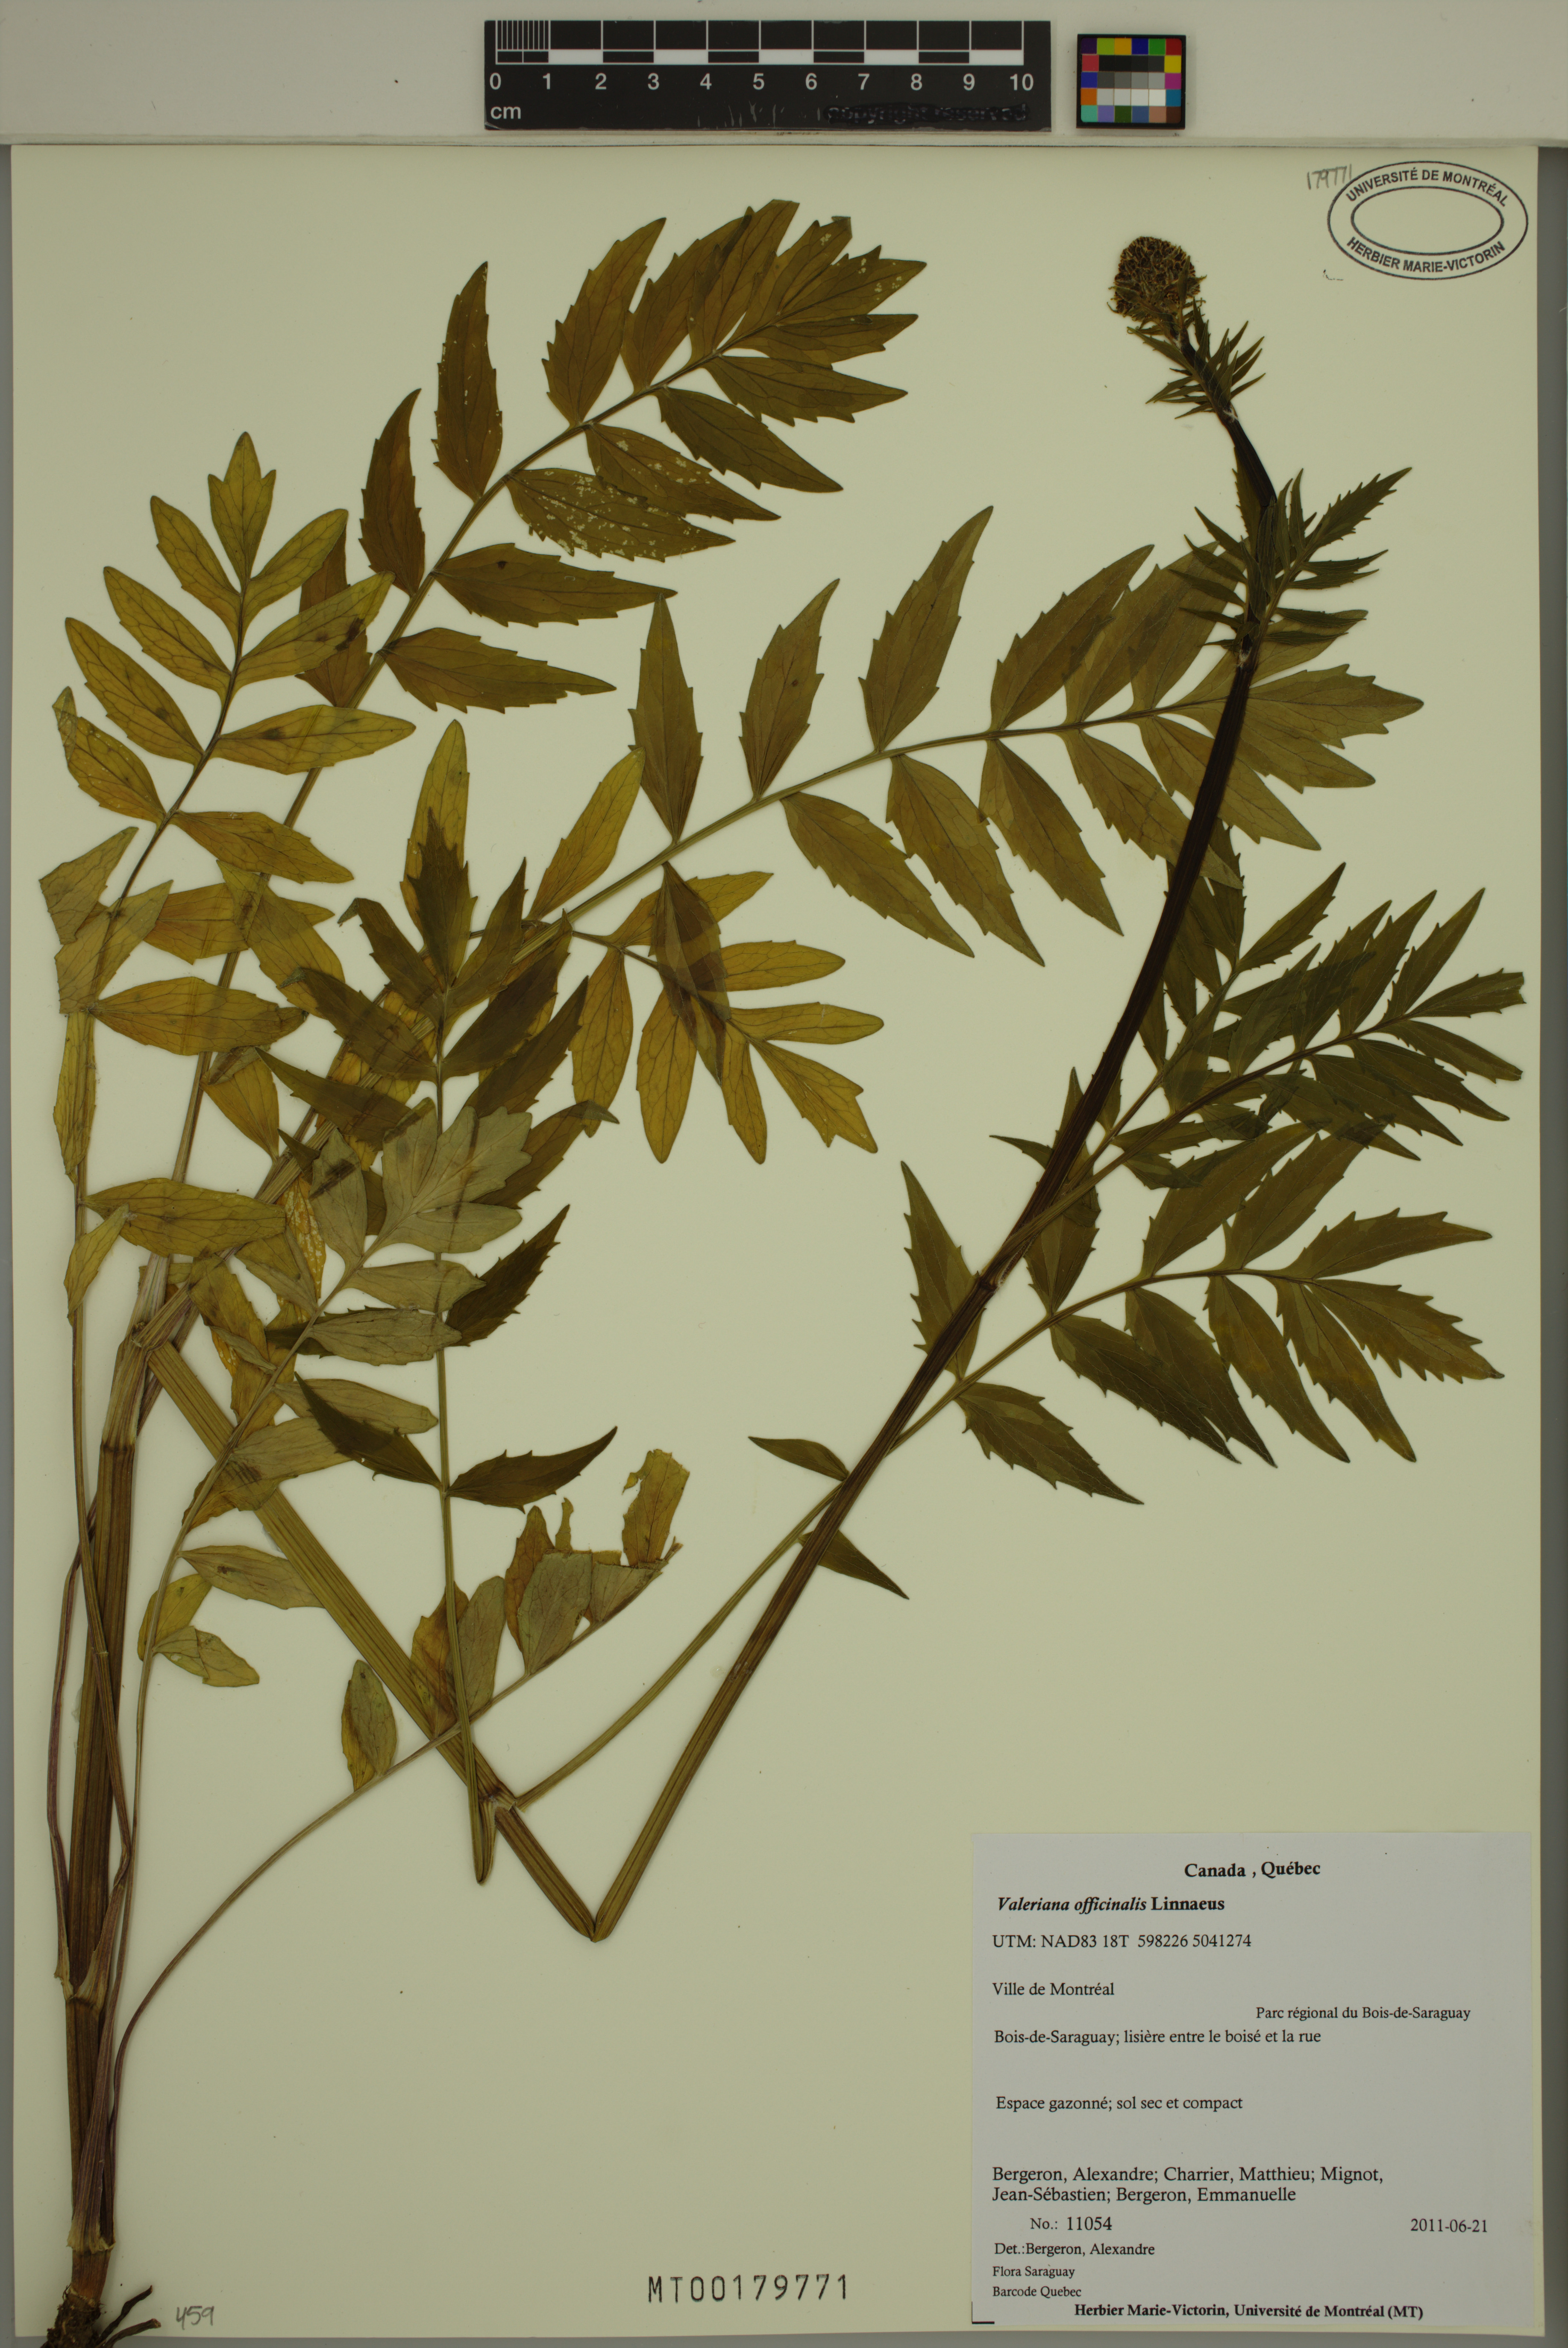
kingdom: Plantae
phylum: Tracheophyta
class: Magnoliopsida
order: Dipsacales
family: Caprifoliaceae
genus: Valeriana
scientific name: Valeriana officinalis
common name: Common valerian
